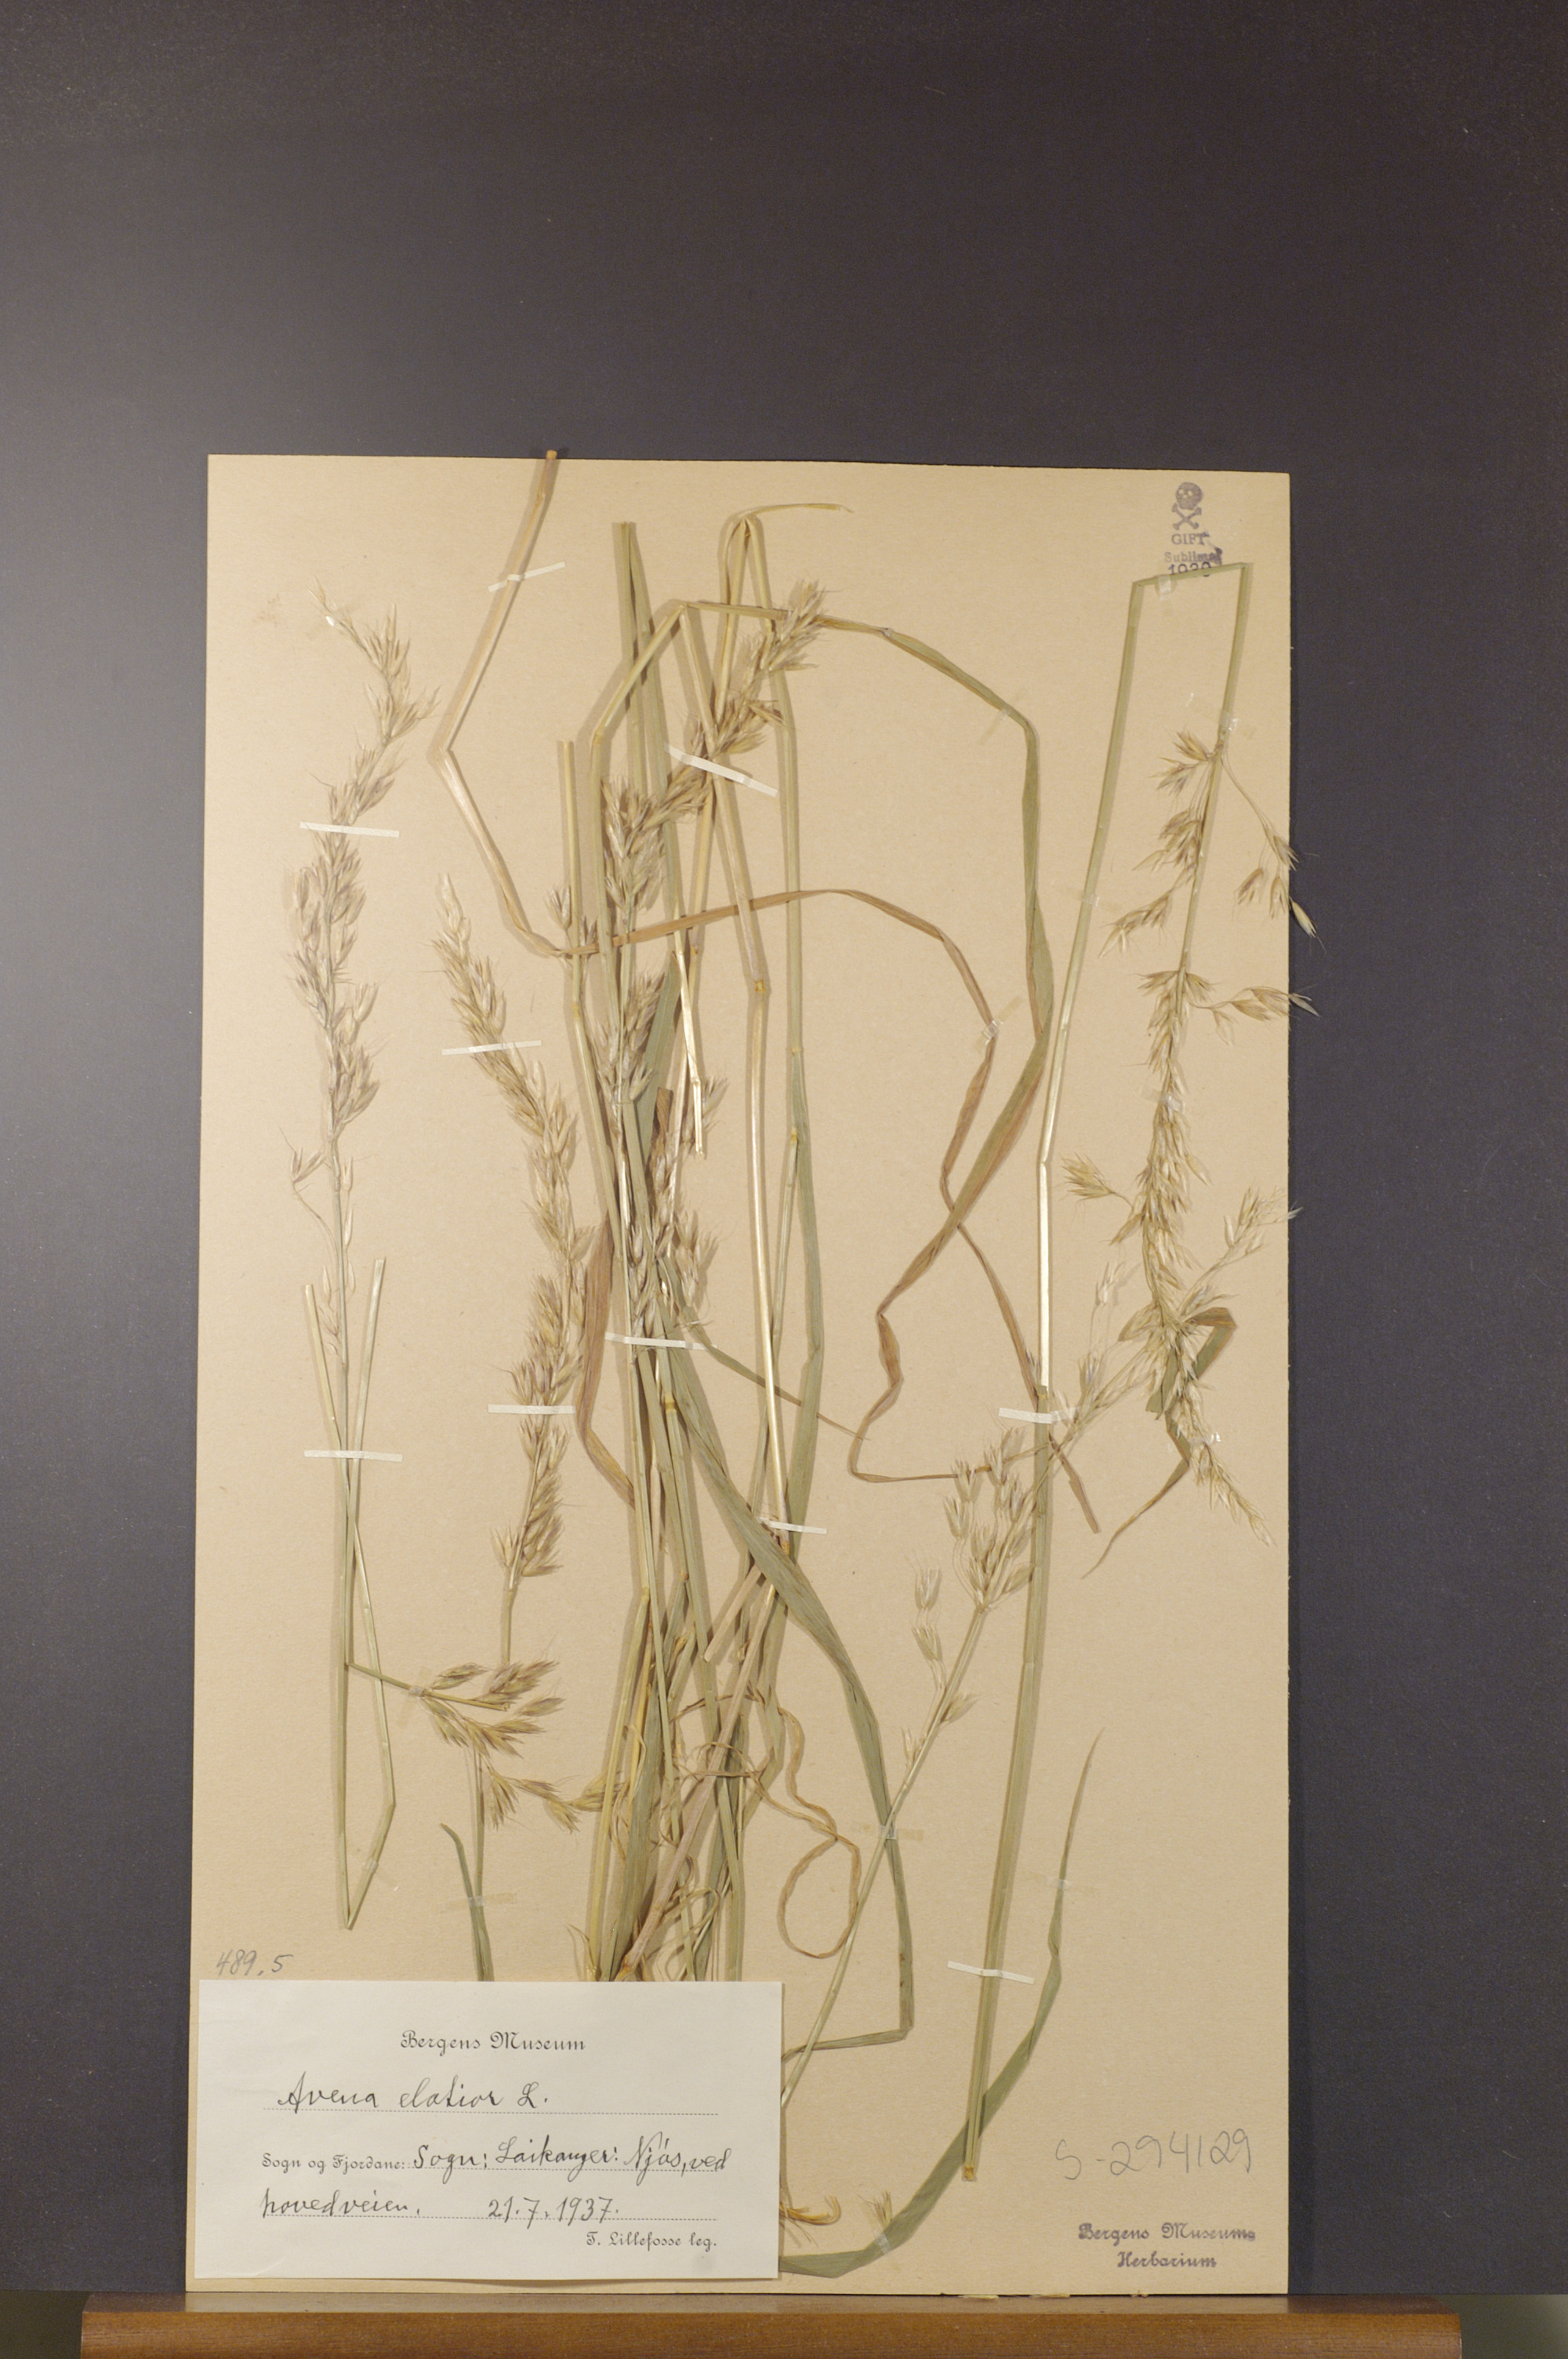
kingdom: Plantae
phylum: Tracheophyta
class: Liliopsida
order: Poales
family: Poaceae
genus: Arrhenatherum
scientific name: Arrhenatherum elatius
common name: Tall oatgrass
